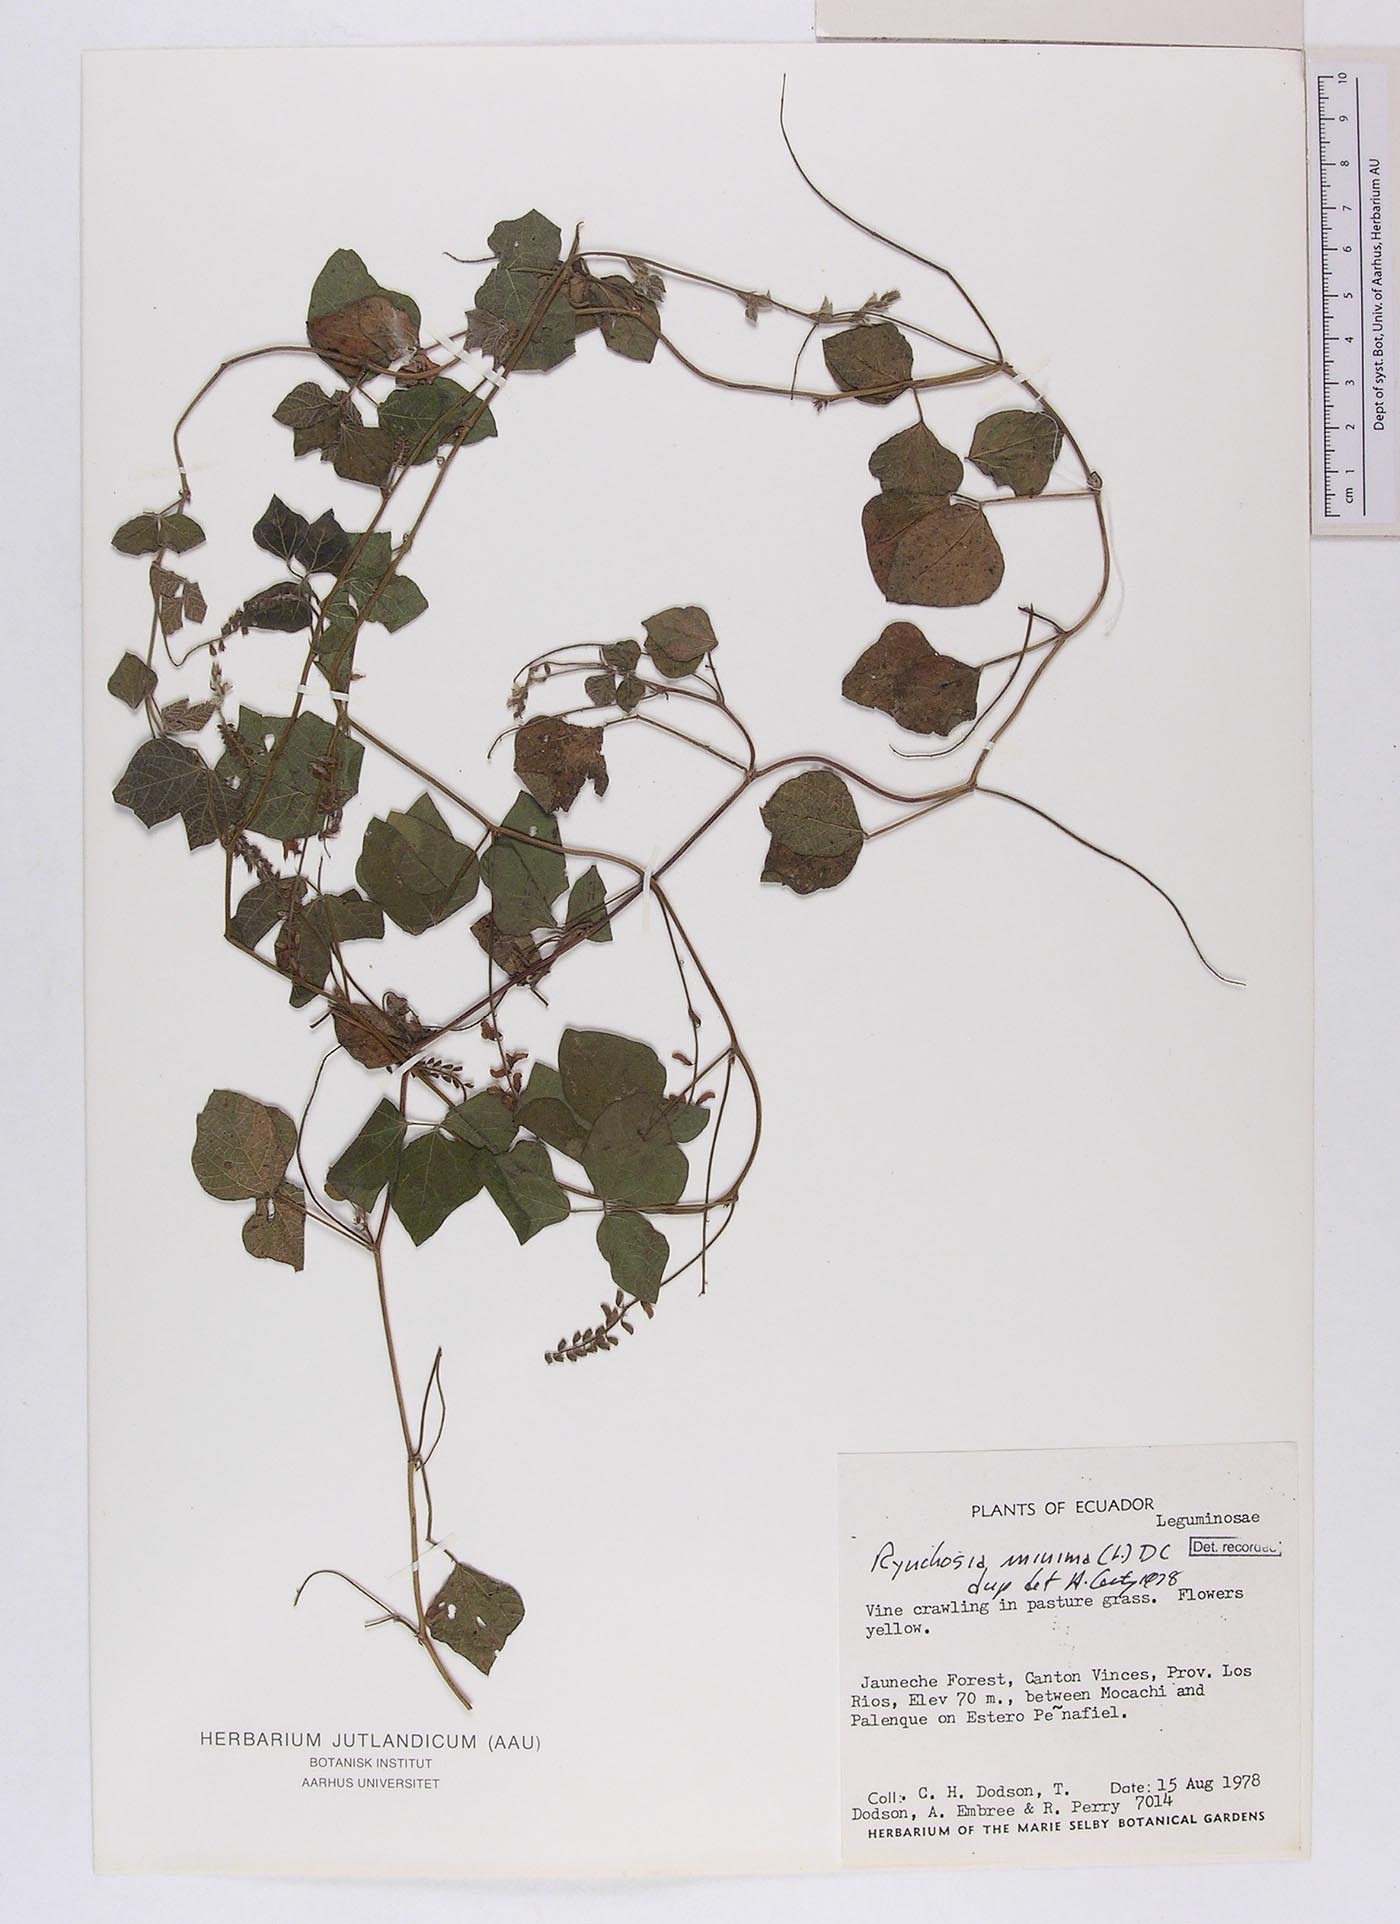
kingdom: Plantae
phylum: Tracheophyta
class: Magnoliopsida
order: Fabales
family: Fabaceae
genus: Rhynchosia
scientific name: Rhynchosia minima
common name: Least snoutbean
